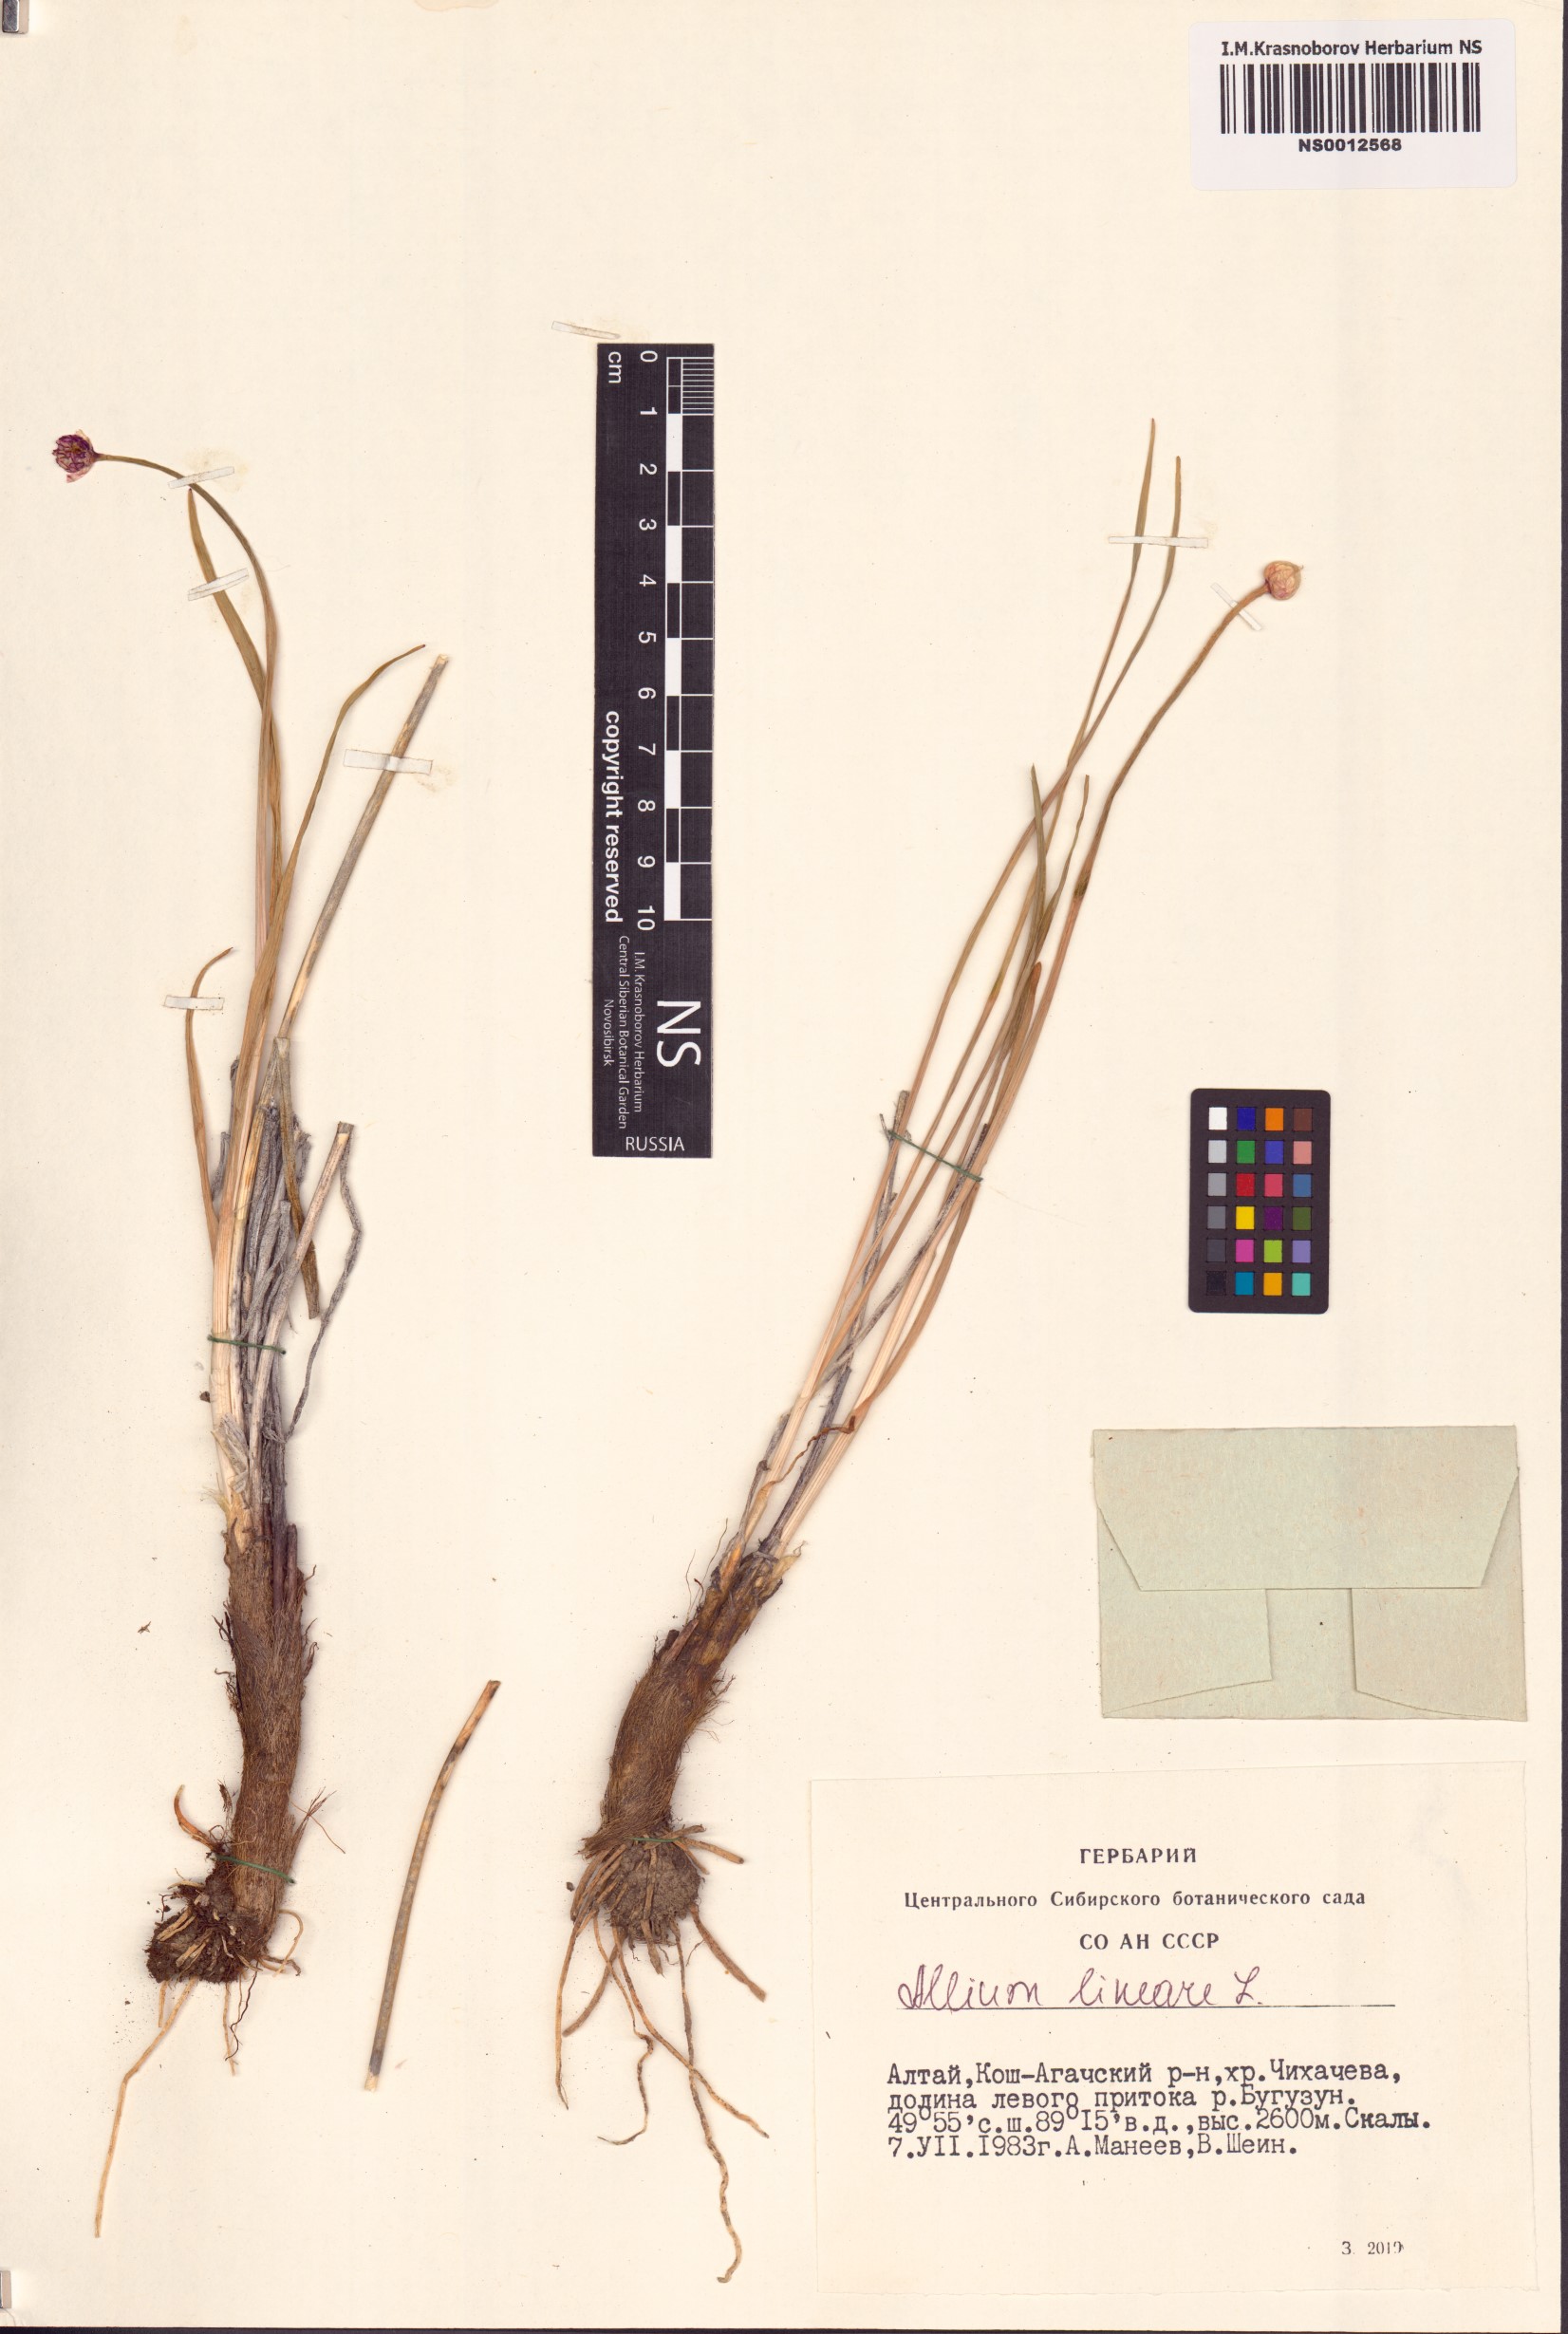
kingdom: Plantae
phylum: Tracheophyta
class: Liliopsida
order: Asparagales
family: Amaryllidaceae
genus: Allium
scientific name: Allium lineare
